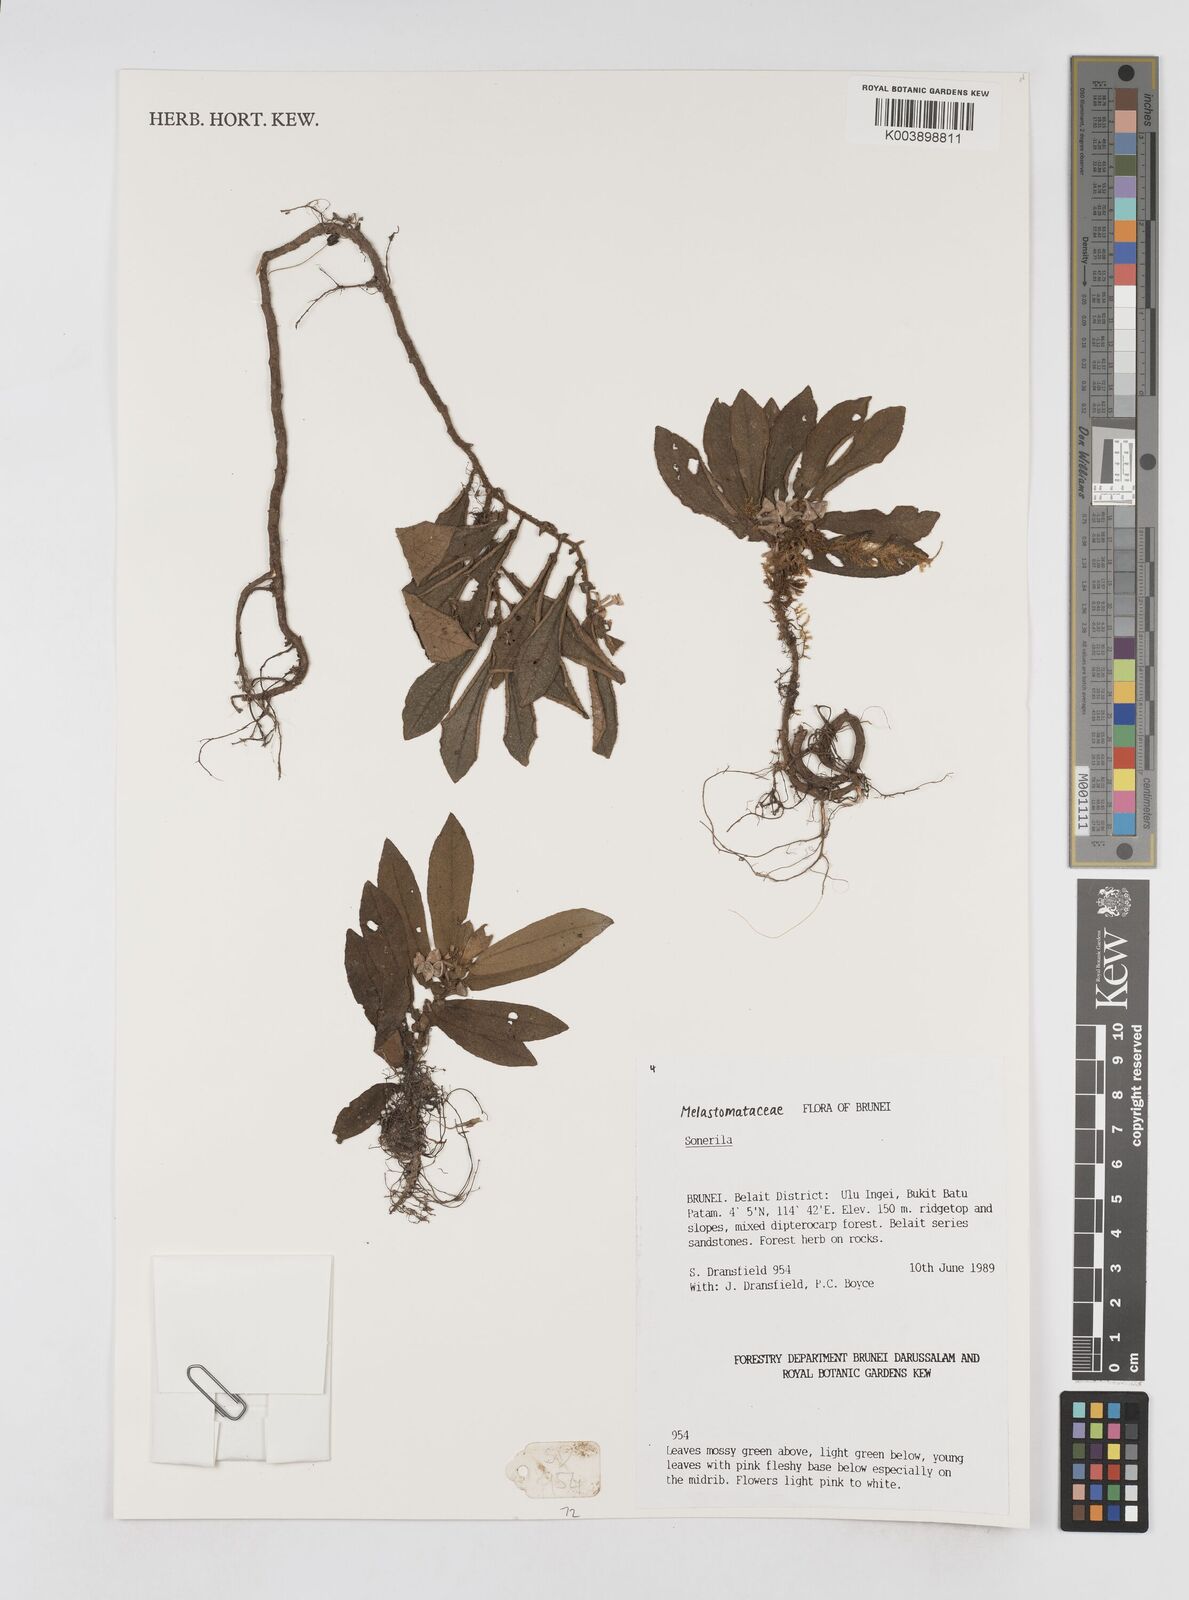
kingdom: Plantae
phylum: Tracheophyta
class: Magnoliopsida
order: Myrtales
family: Melastomataceae
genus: Sonerila
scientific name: Sonerila
